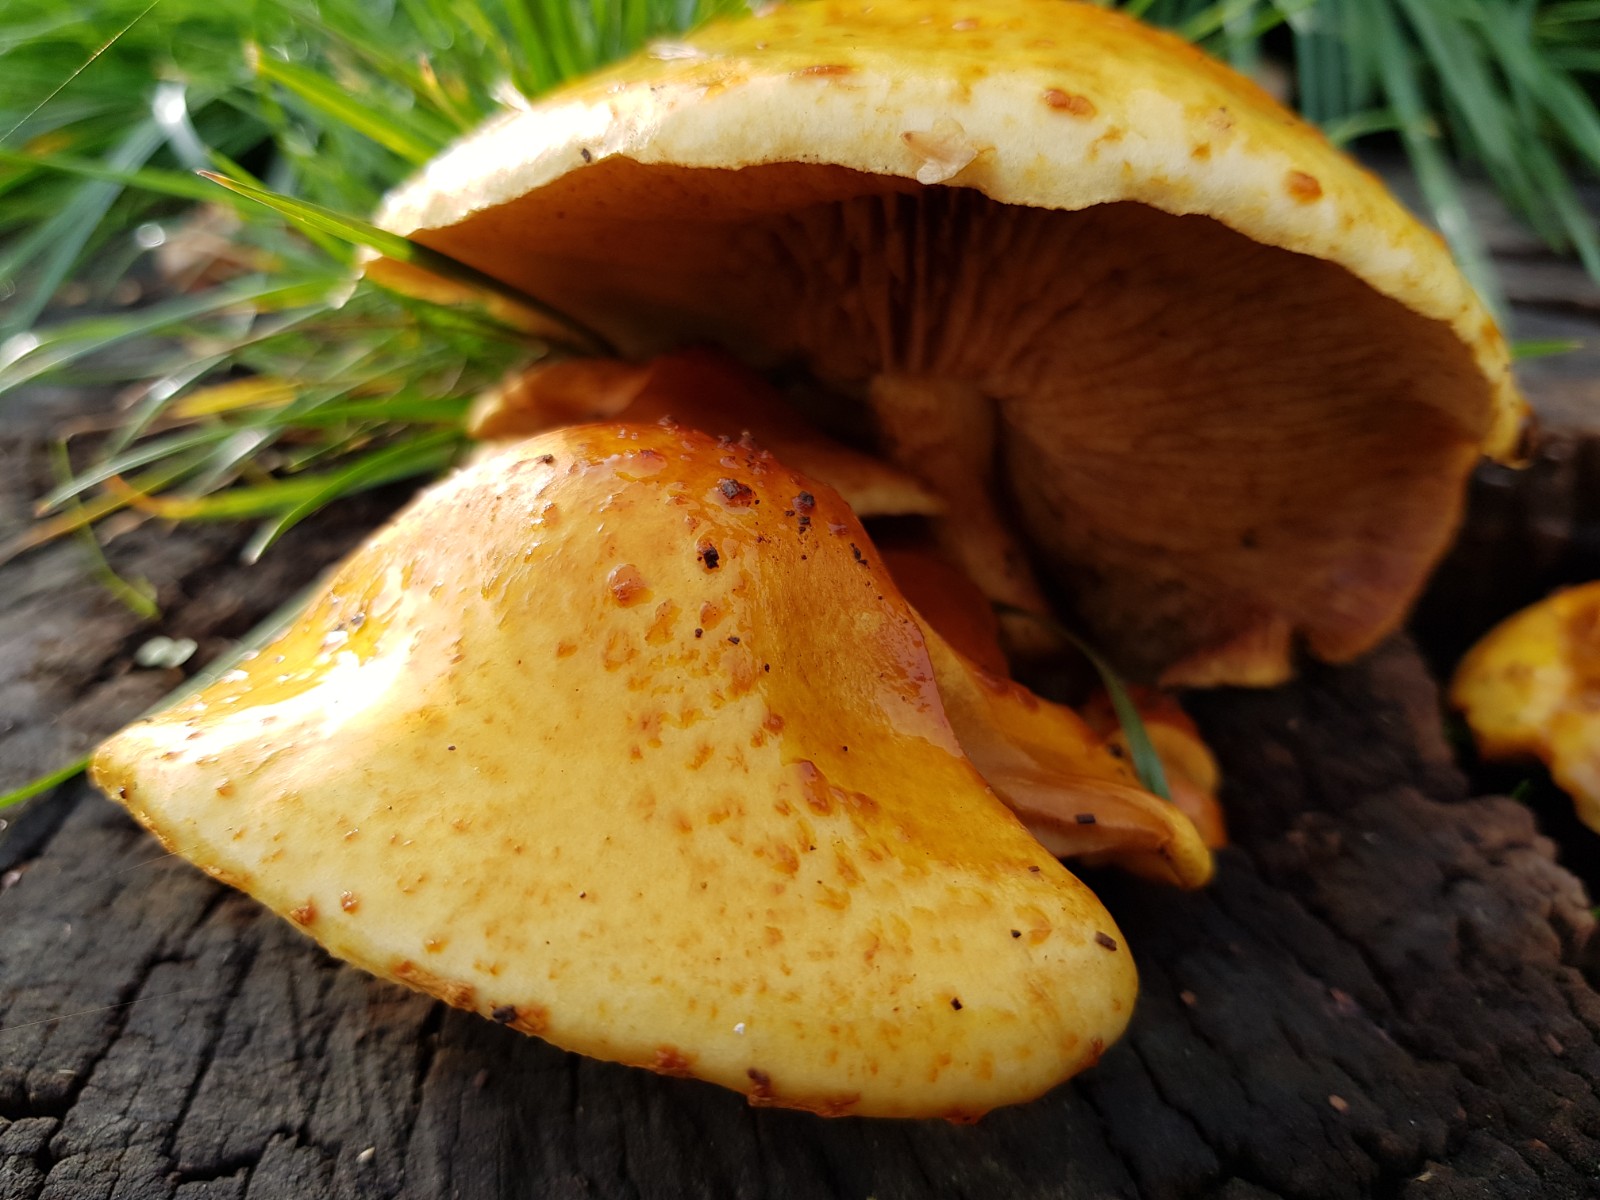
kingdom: Fungi
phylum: Basidiomycota
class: Agaricomycetes
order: Agaricales
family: Strophariaceae
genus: Pholiota
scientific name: Pholiota
